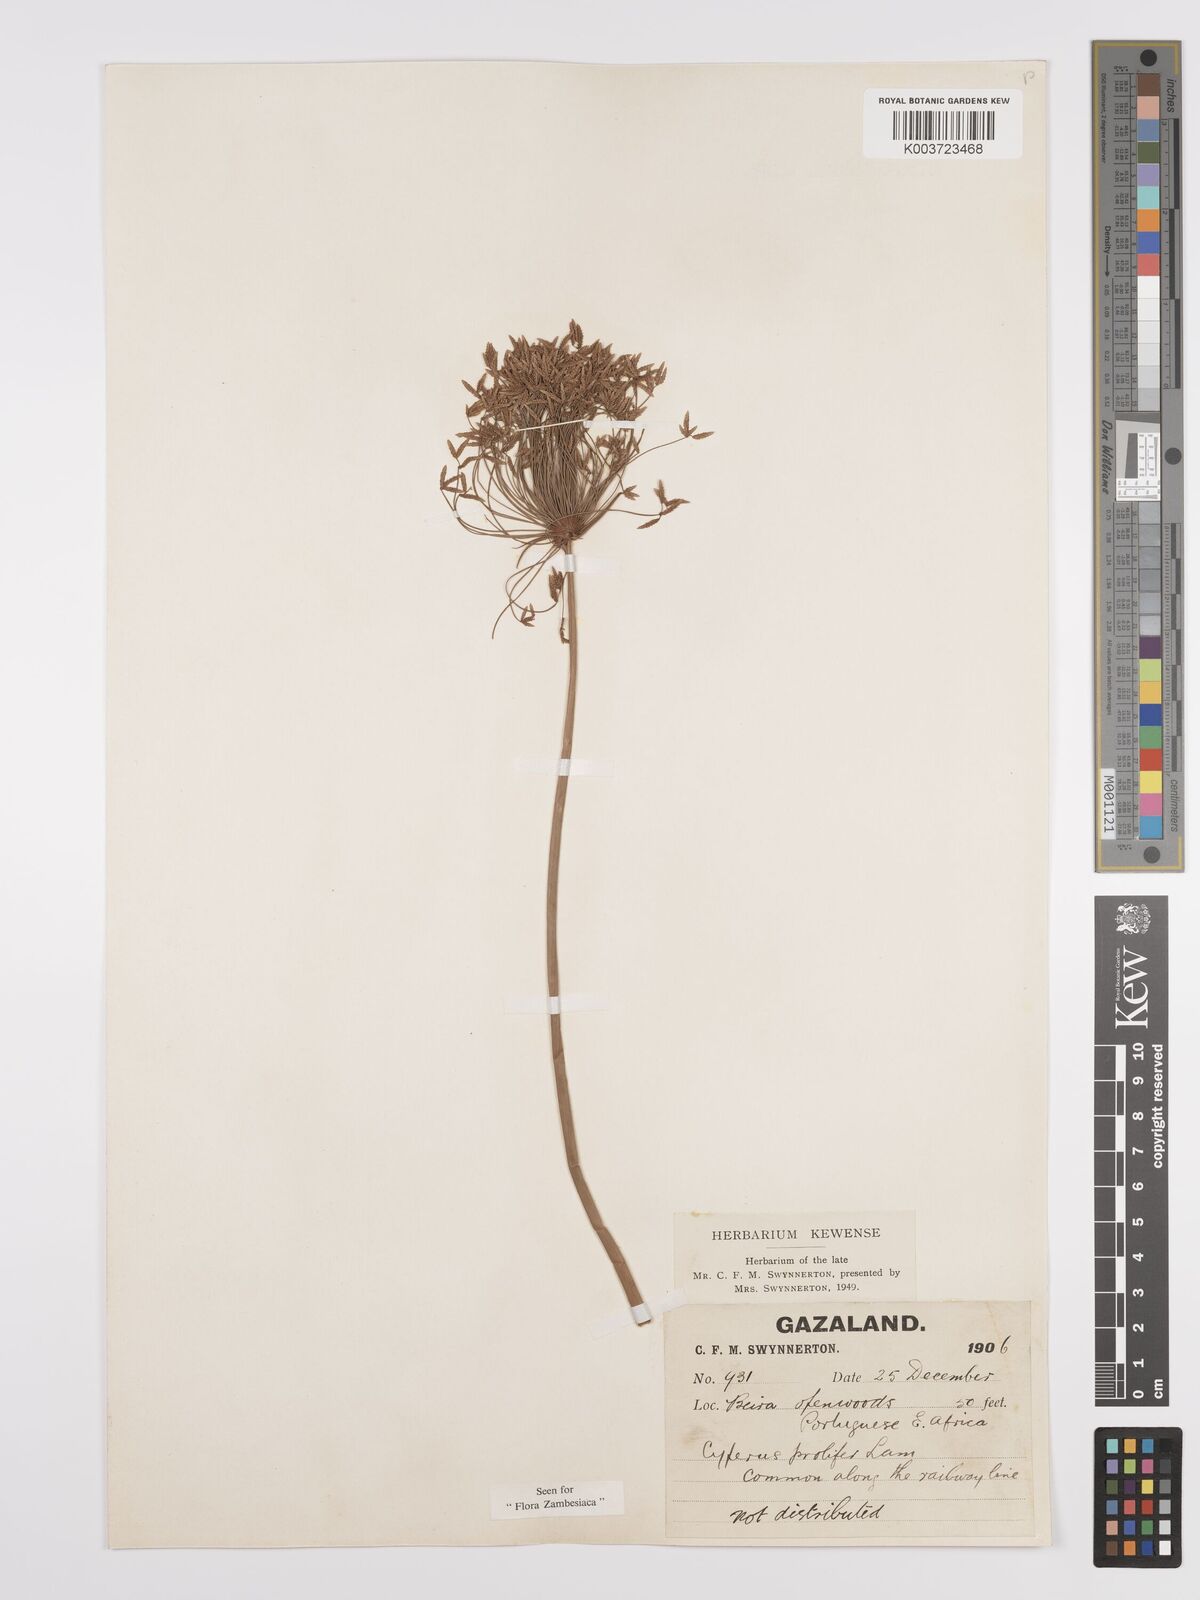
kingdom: Plantae
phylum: Tracheophyta
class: Liliopsida
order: Poales
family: Cyperaceae
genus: Cyperus
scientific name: Cyperus prolifer
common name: Miniature flatsedge
